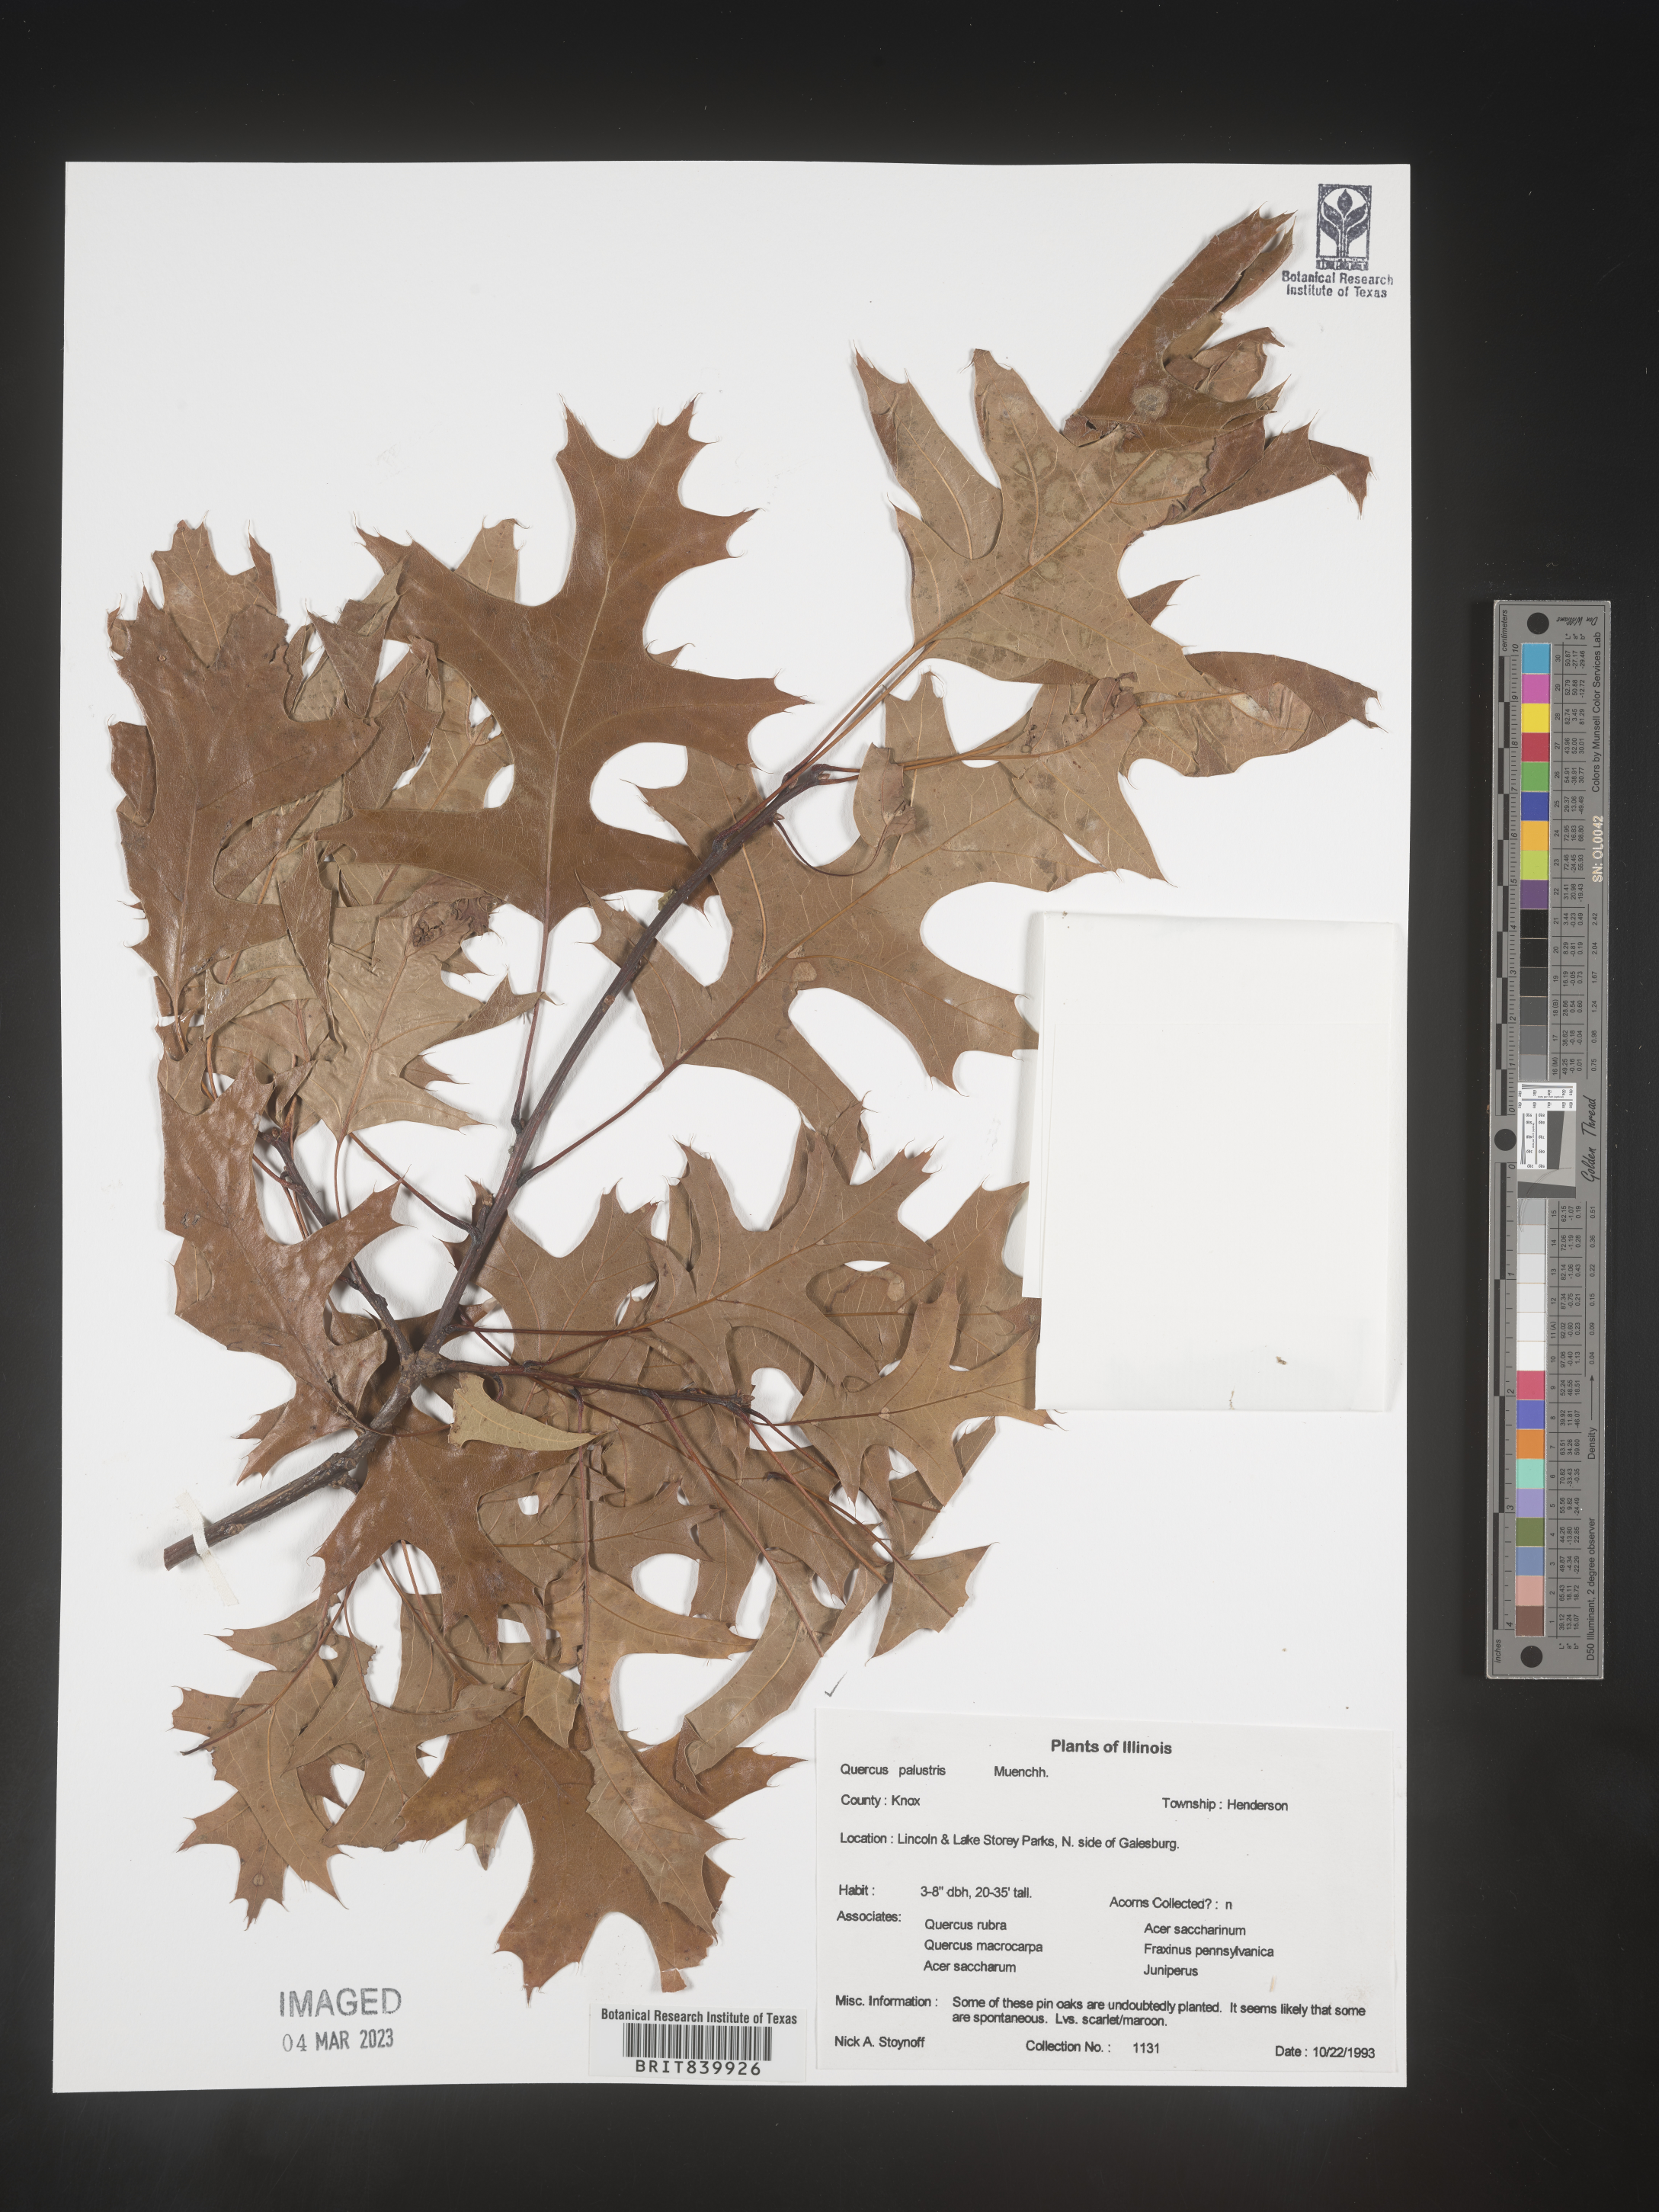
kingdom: Plantae
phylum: Tracheophyta
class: Magnoliopsida
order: Fagales
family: Fagaceae
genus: Quercus
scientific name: Quercus palustris
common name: Pin oak
